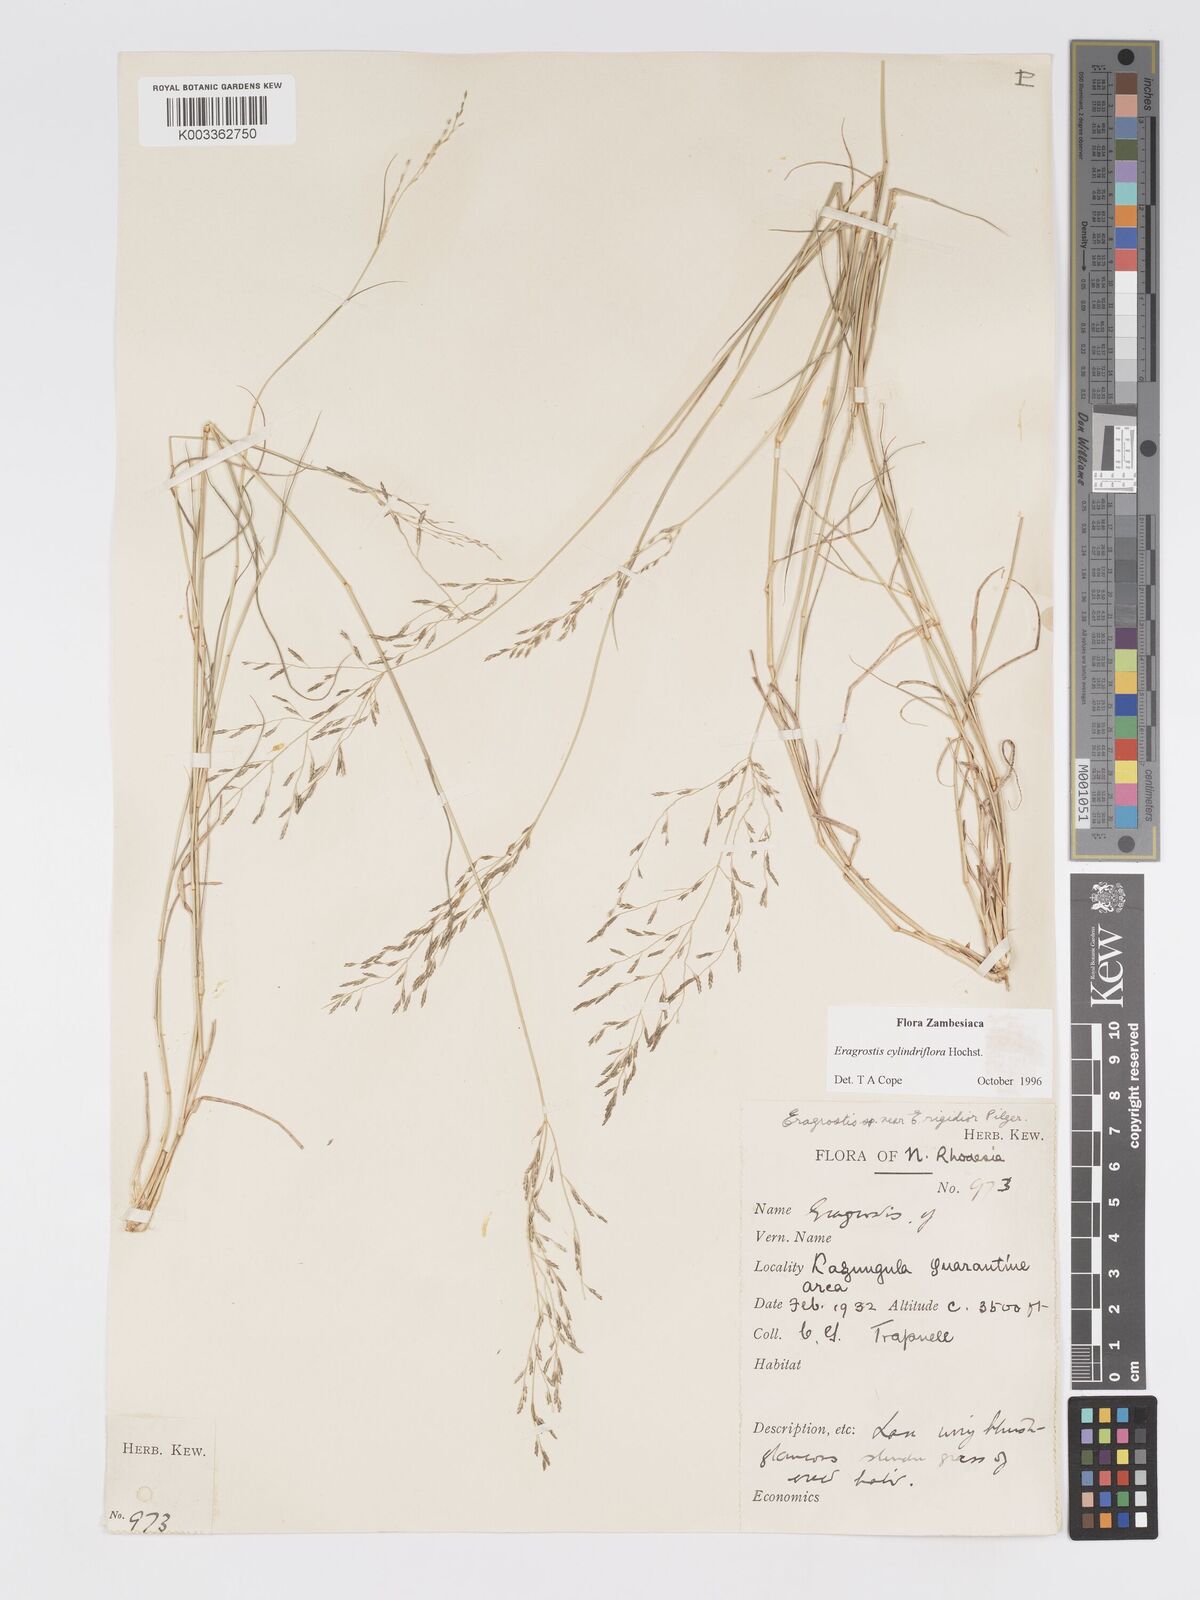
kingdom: Plantae
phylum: Tracheophyta
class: Liliopsida
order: Poales
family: Poaceae
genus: Eragrostis
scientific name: Eragrostis cylindriflora
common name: Cylinderflower lovegrass
